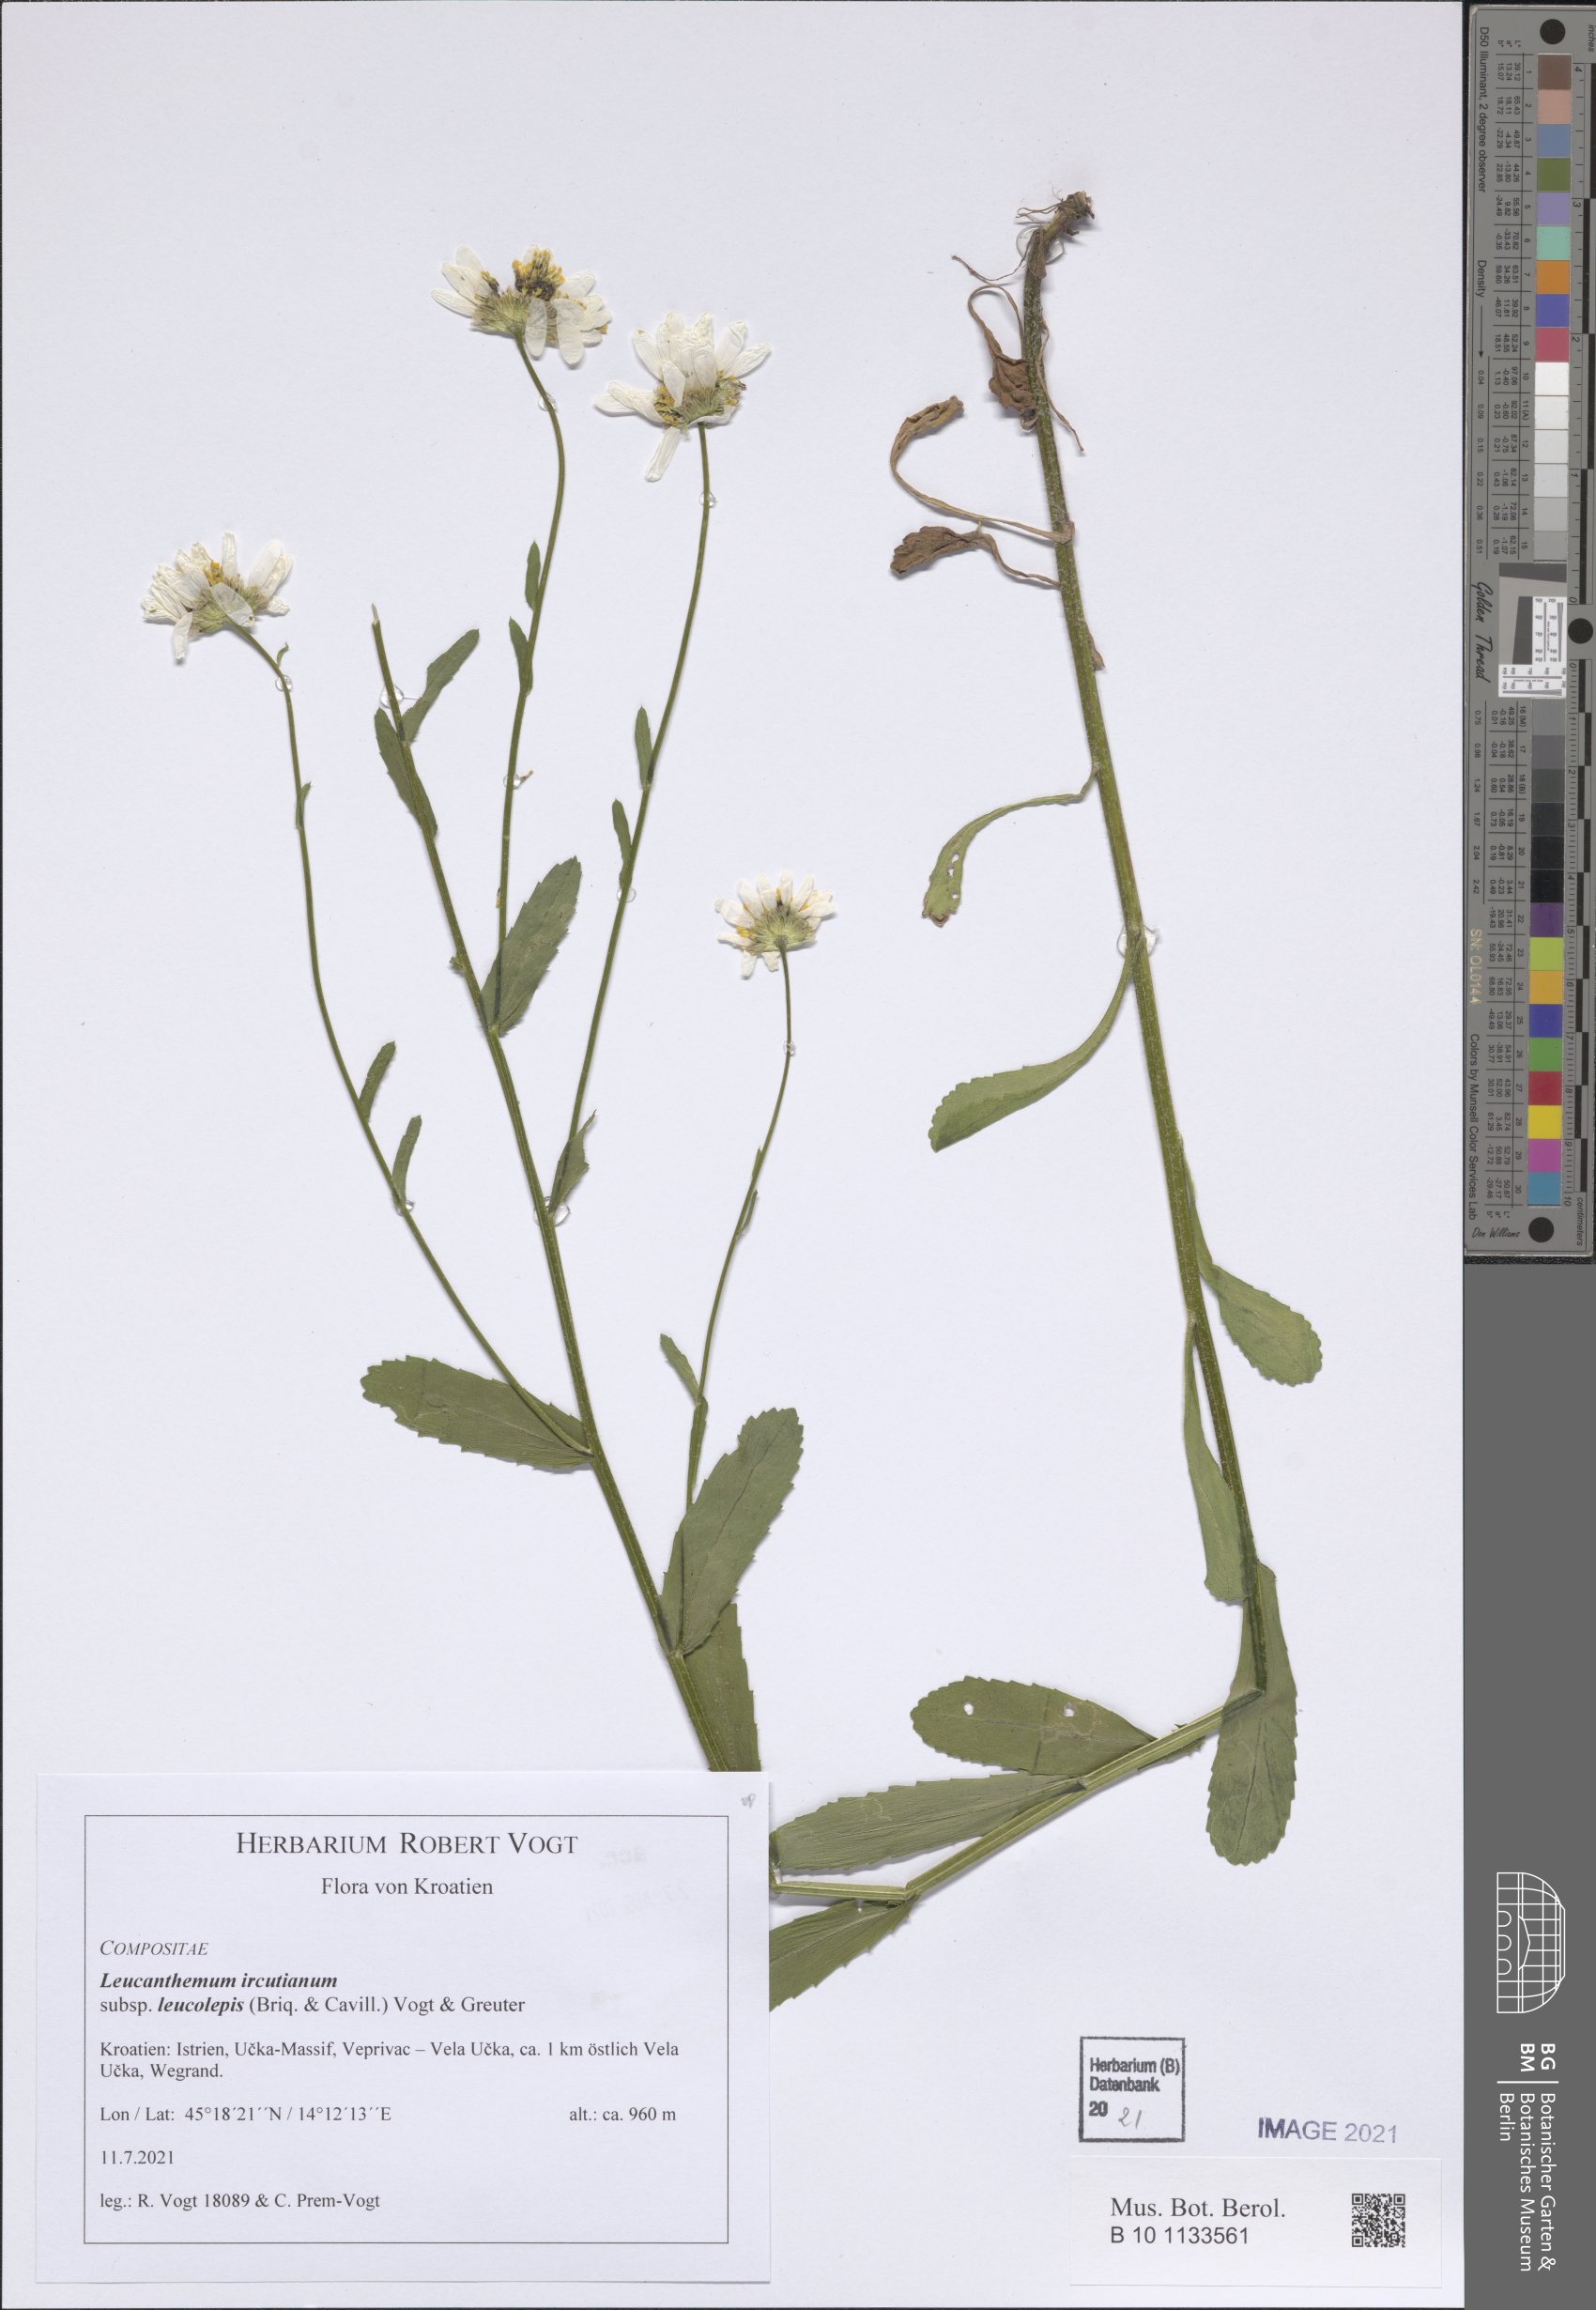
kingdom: Plantae
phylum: Tracheophyta
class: Magnoliopsida
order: Asterales
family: Asteraceae
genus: Leucanthemum
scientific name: Leucanthemum ircutianum
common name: Daisy
